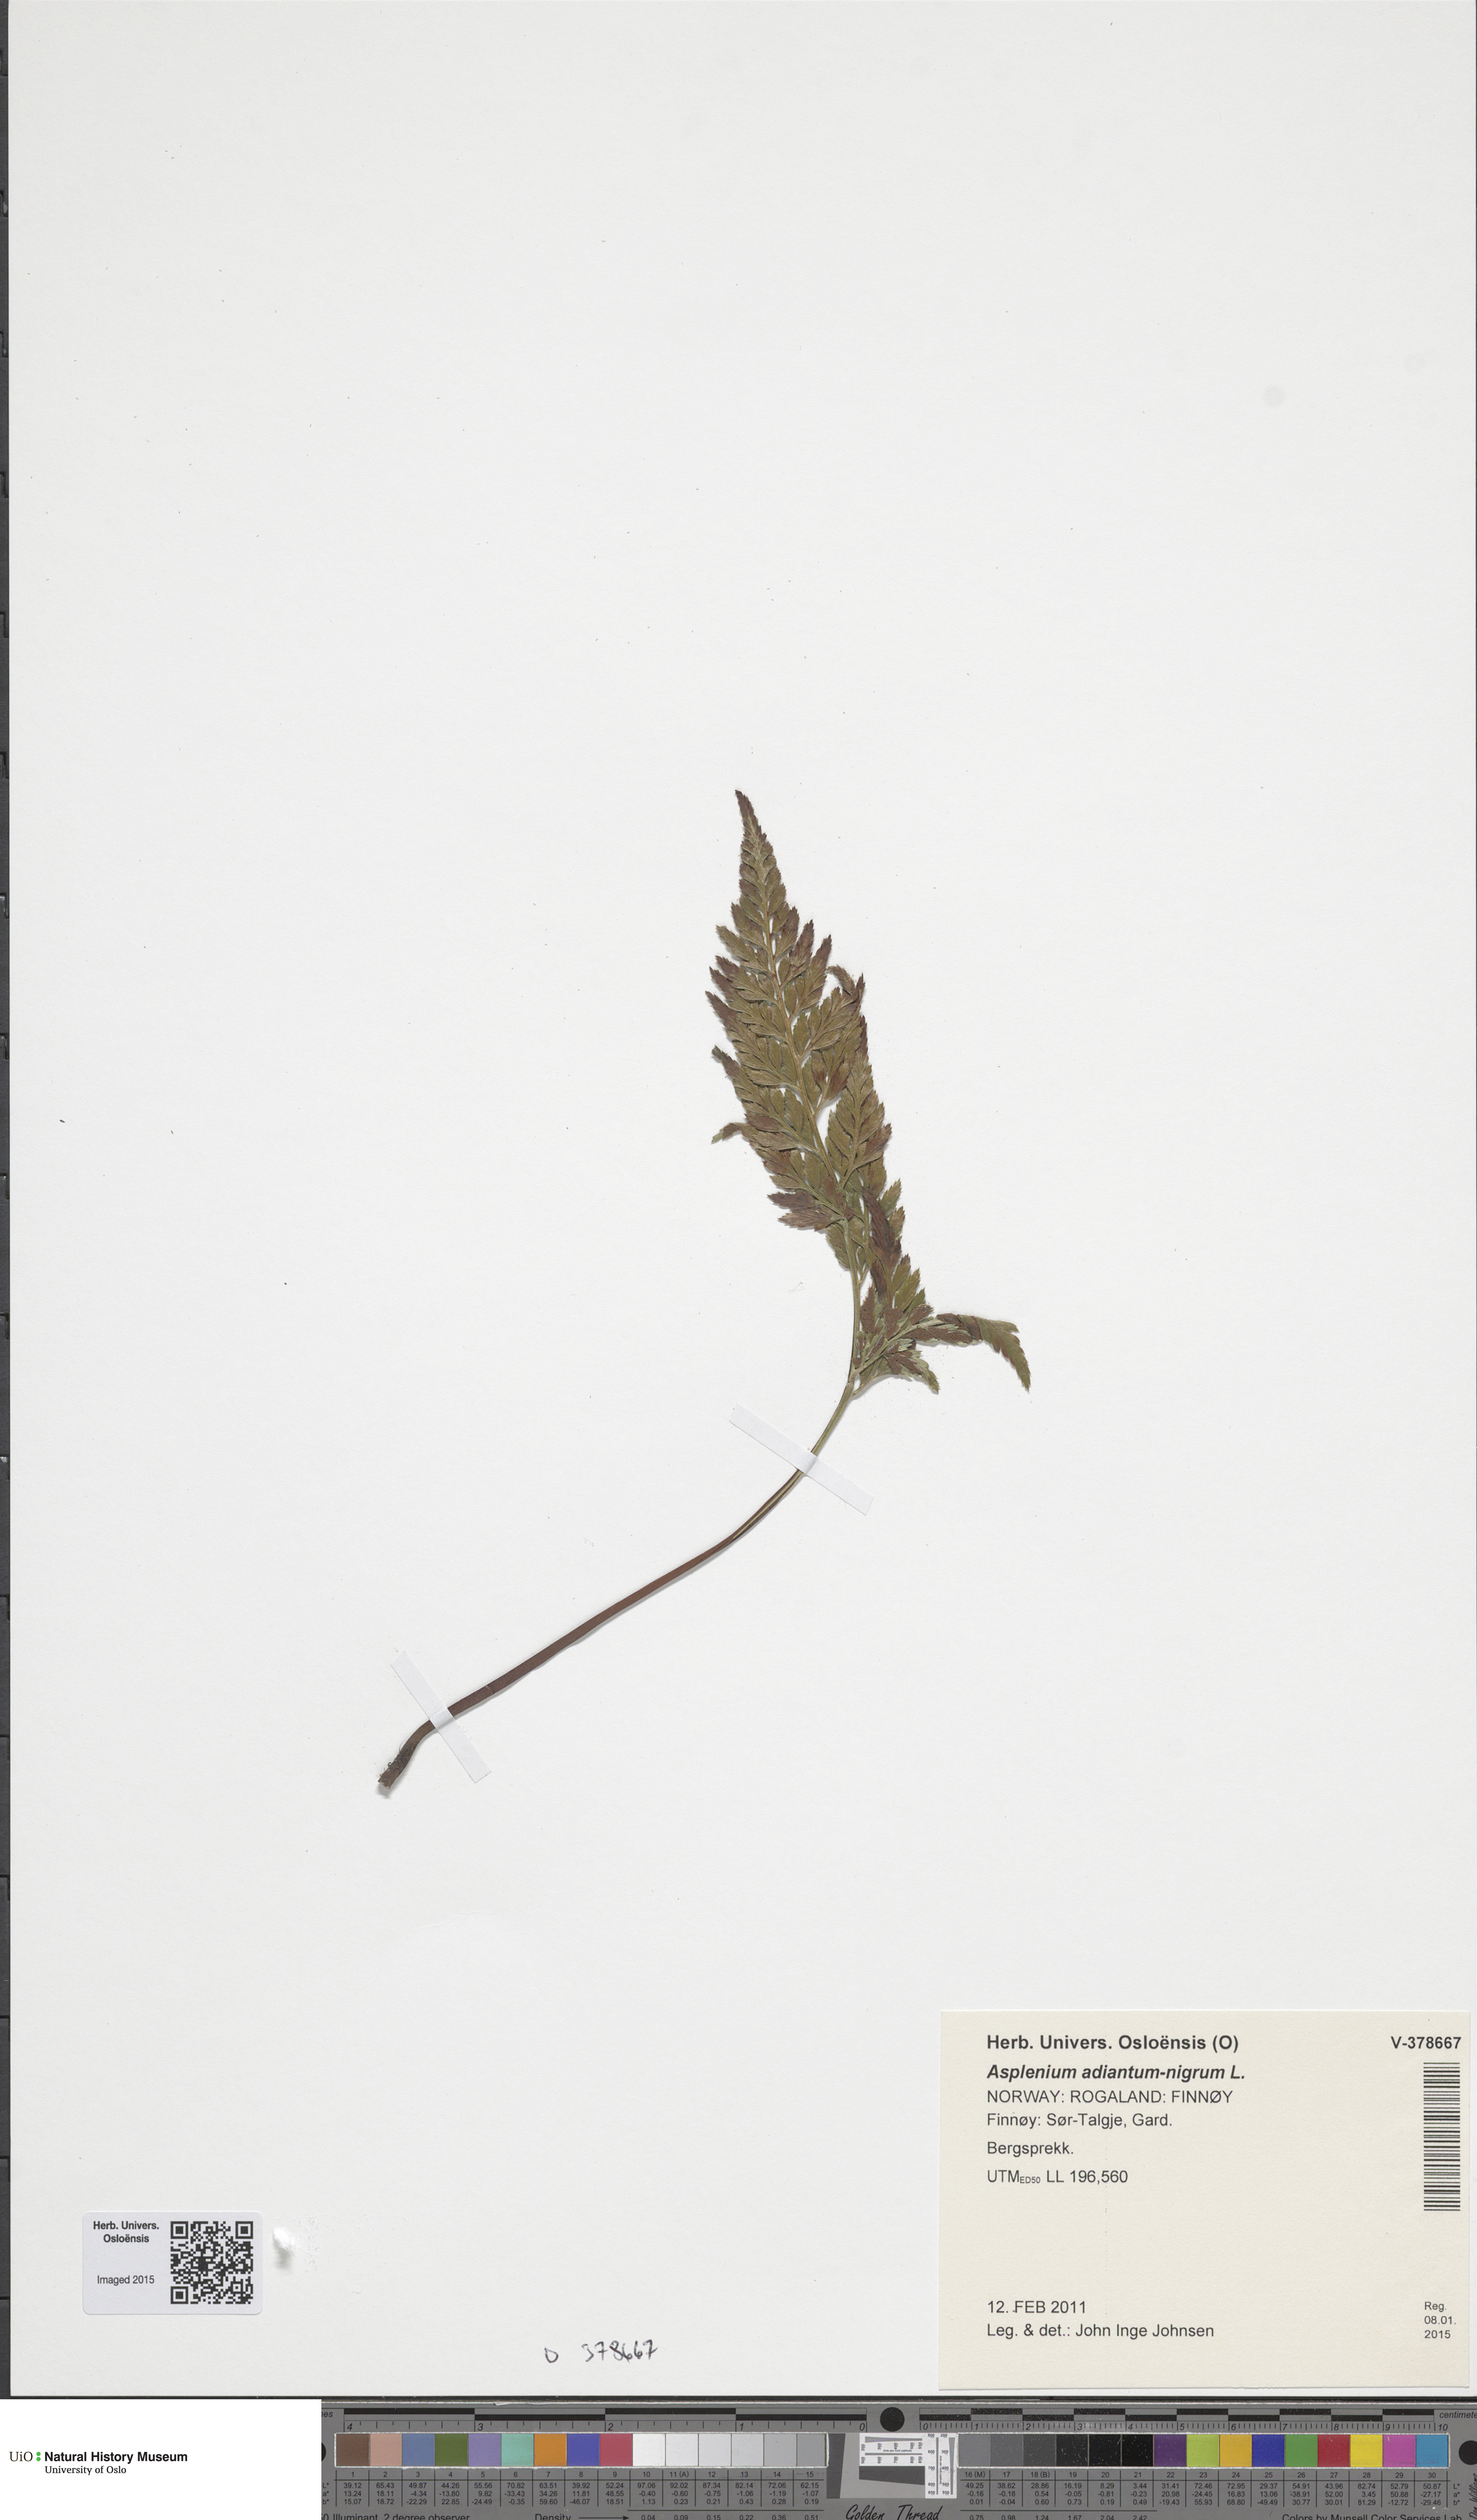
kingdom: Plantae
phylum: Tracheophyta
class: Polypodiopsida
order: Polypodiales
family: Aspleniaceae
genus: Asplenium
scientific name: Asplenium adiantum-nigrum
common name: Black spleenwort
